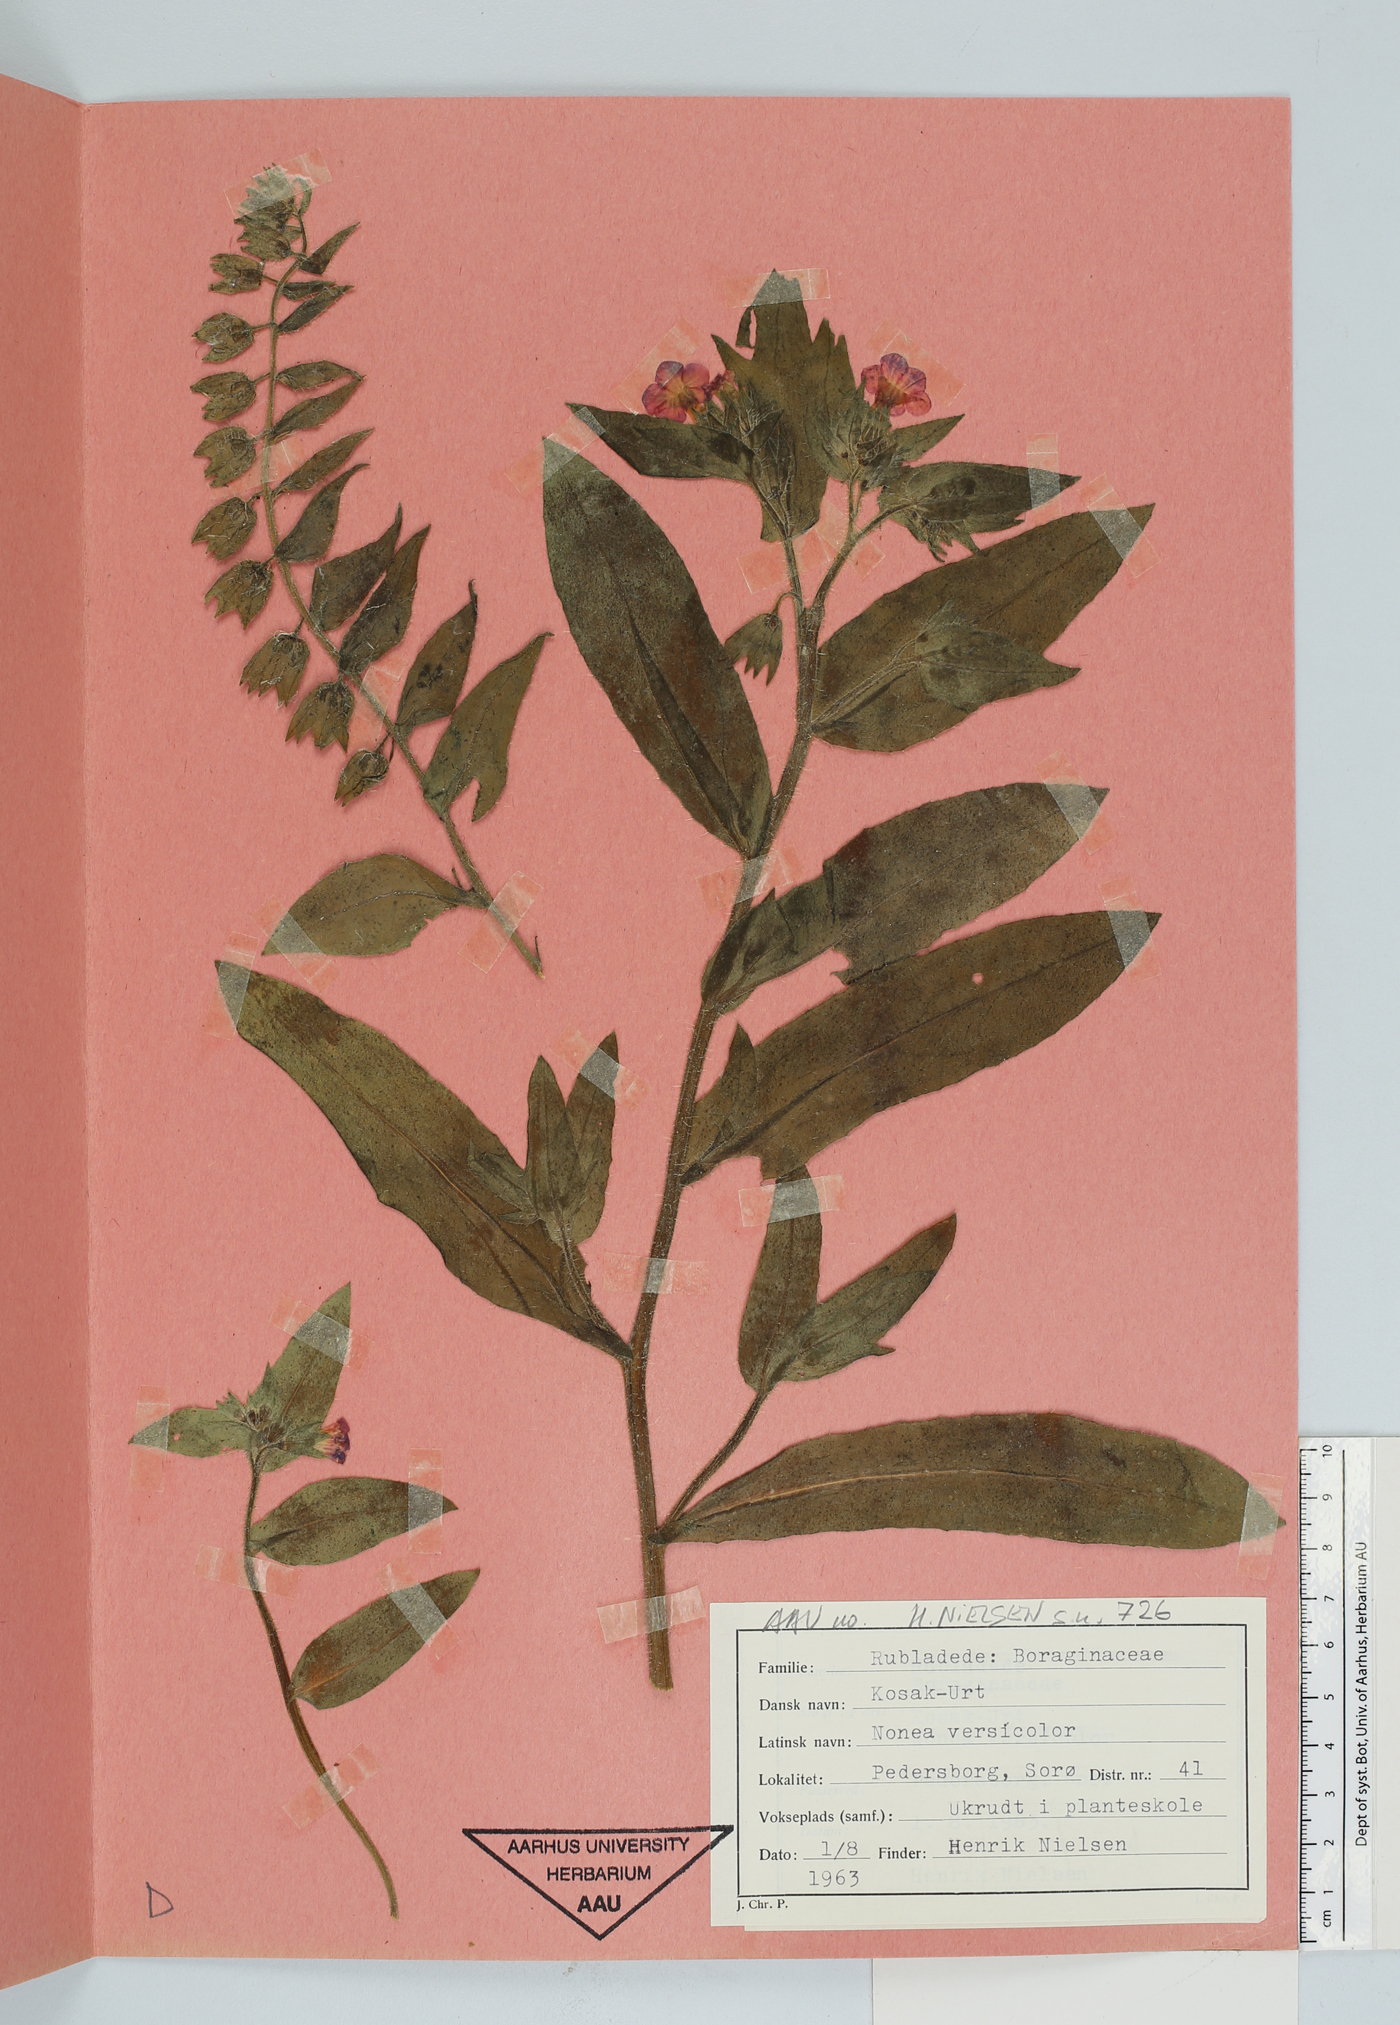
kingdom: Plantae
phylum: Tracheophyta
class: Magnoliopsida
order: Boraginales
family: Boraginaceae
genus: Nonea
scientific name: Nonea versicolor
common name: Varied monkswort
